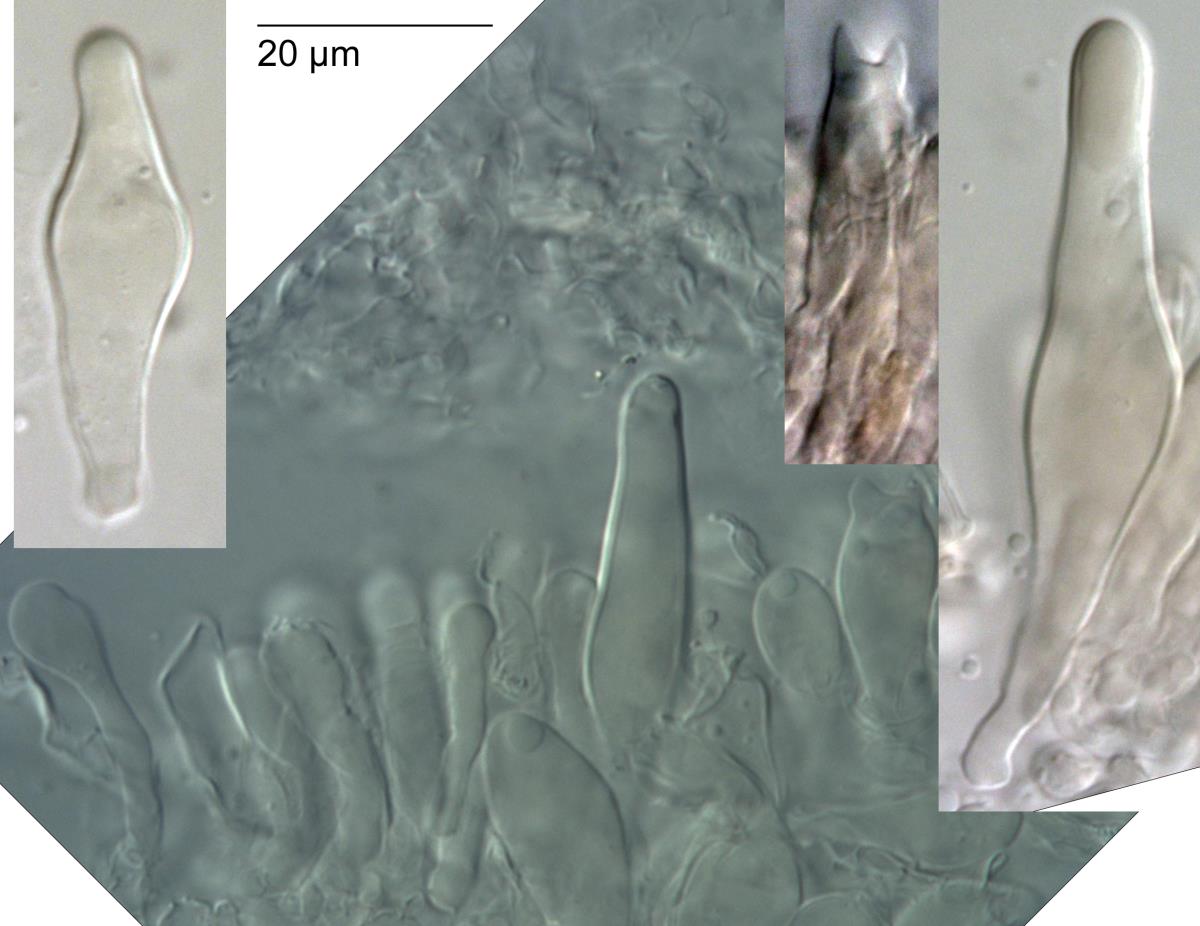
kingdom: Fungi
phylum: Basidiomycota
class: Agaricomycetes
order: Agaricales
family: Marasmiaceae
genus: Campanella
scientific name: Campanella candida
